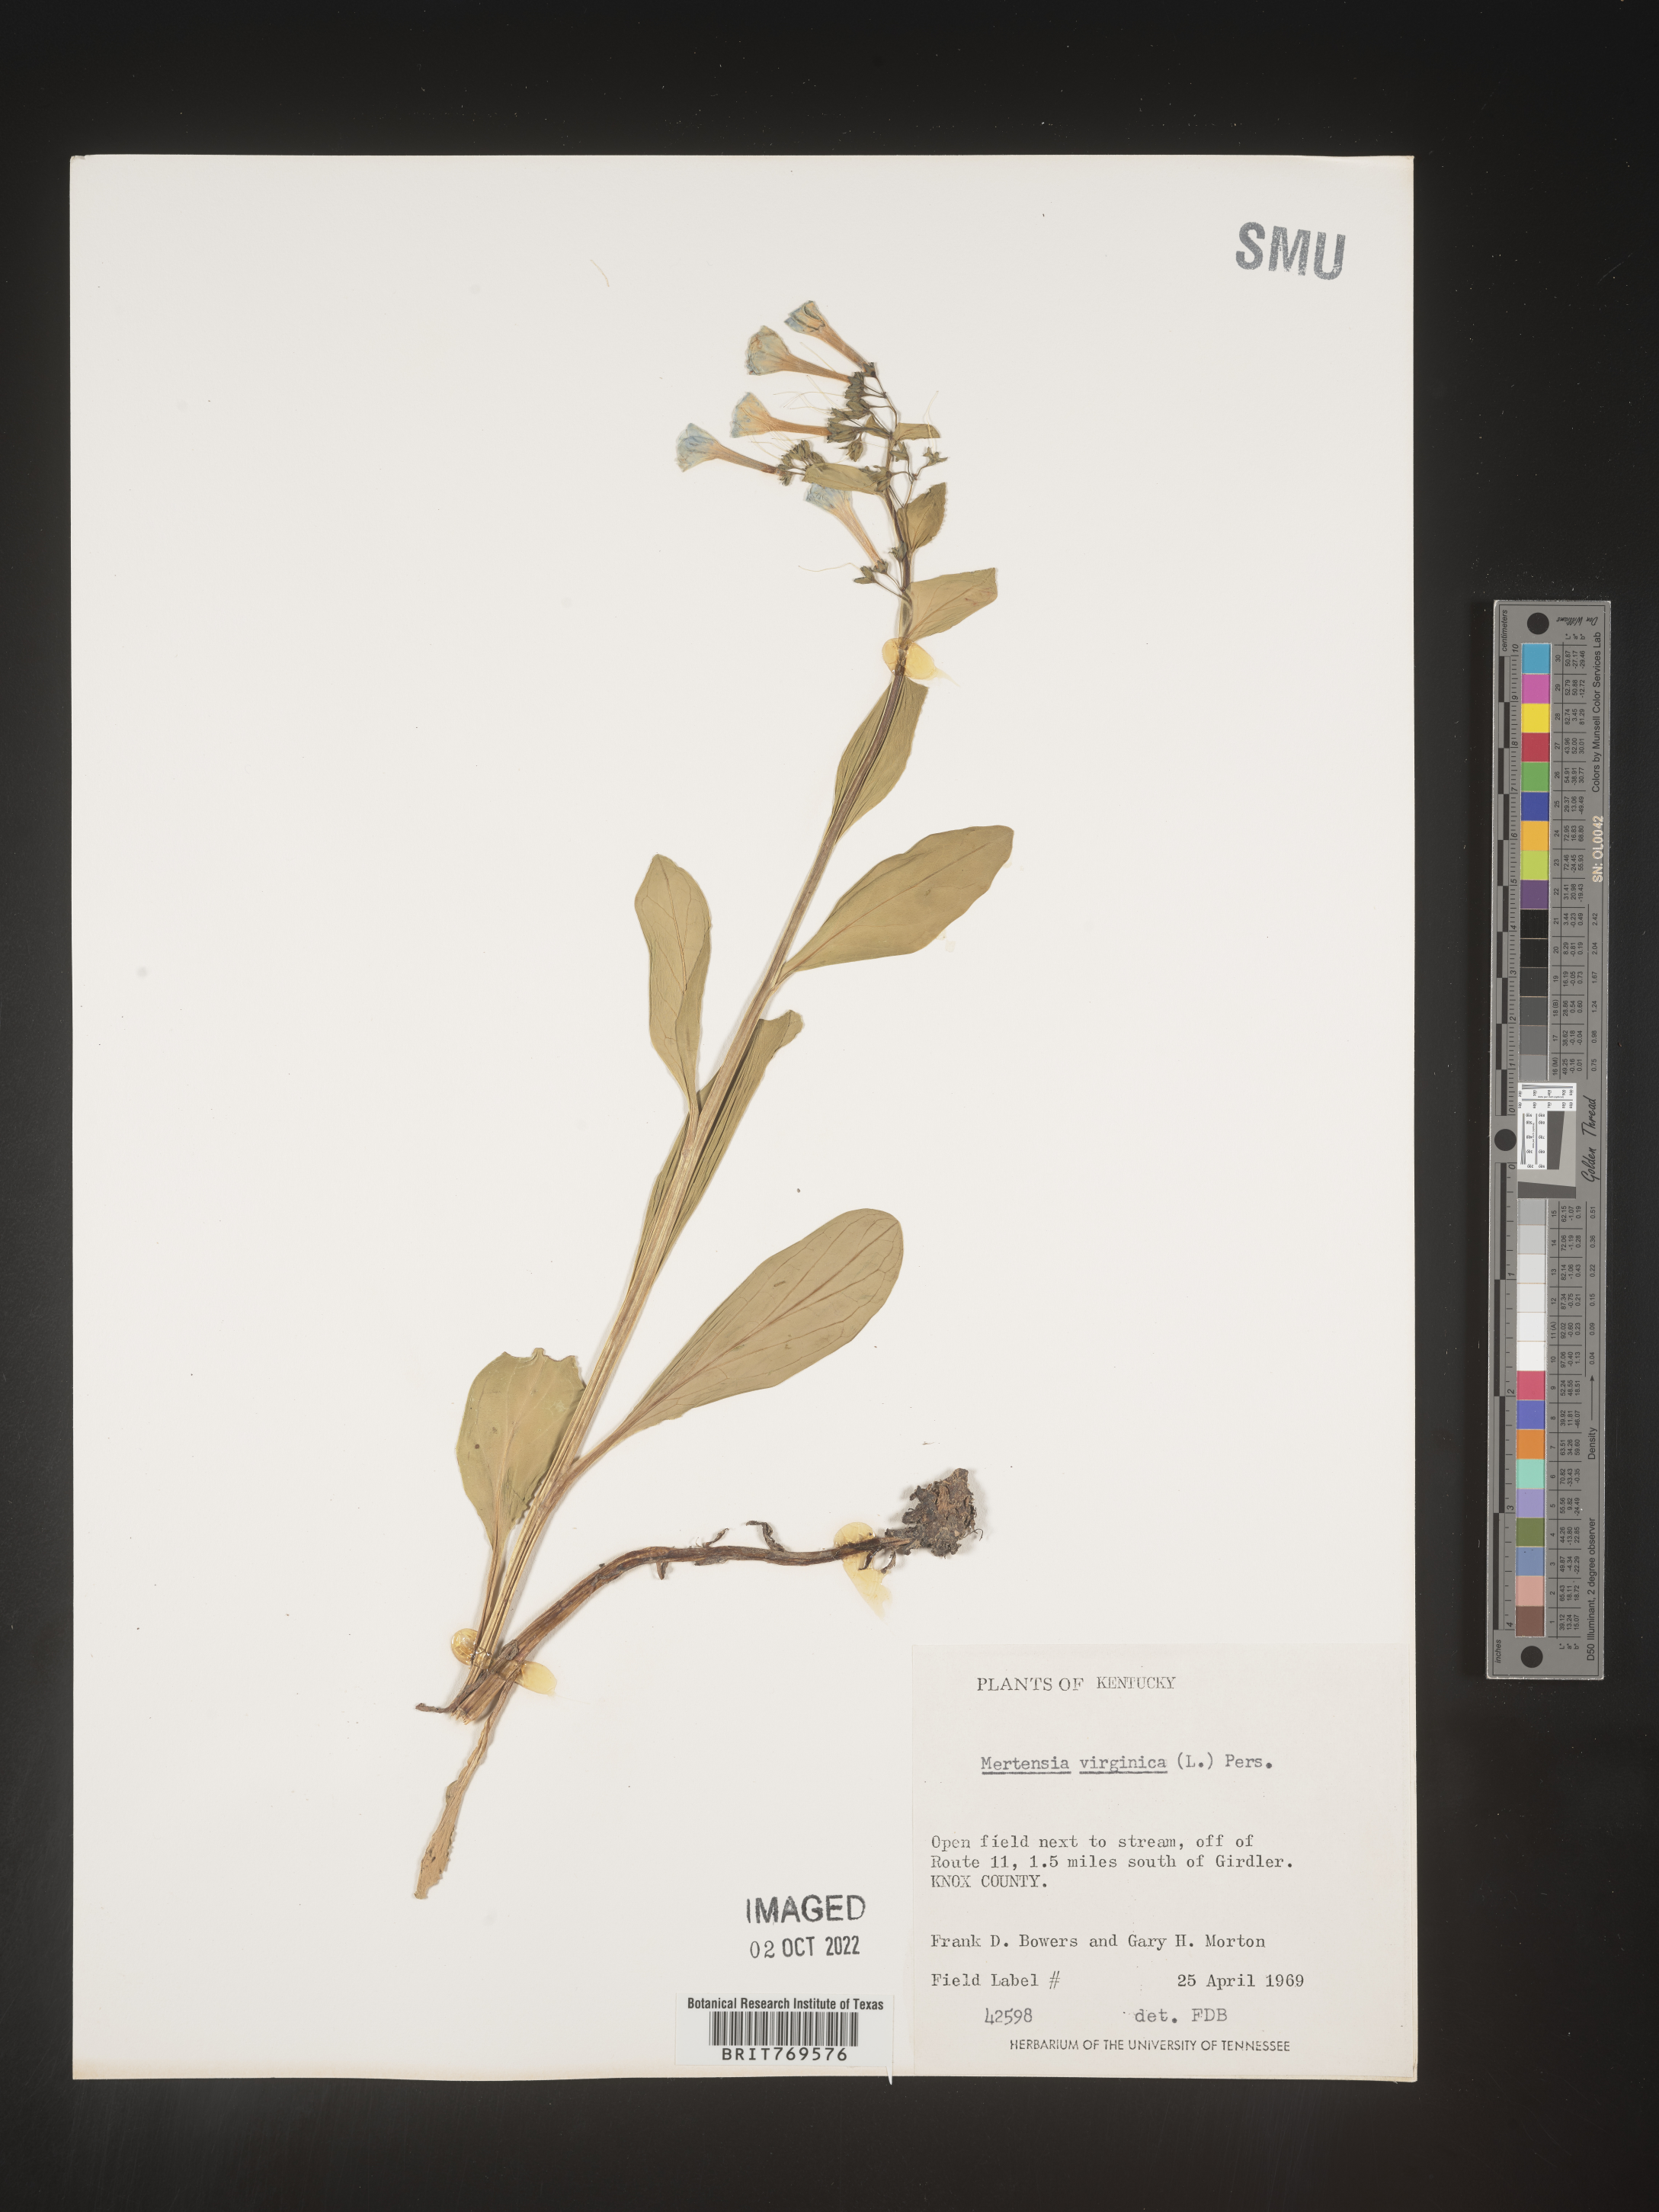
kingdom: Plantae
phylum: Tracheophyta
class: Magnoliopsida
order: Boraginales
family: Boraginaceae
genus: Mertensia
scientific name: Mertensia virginica
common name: Virginia bluebells
